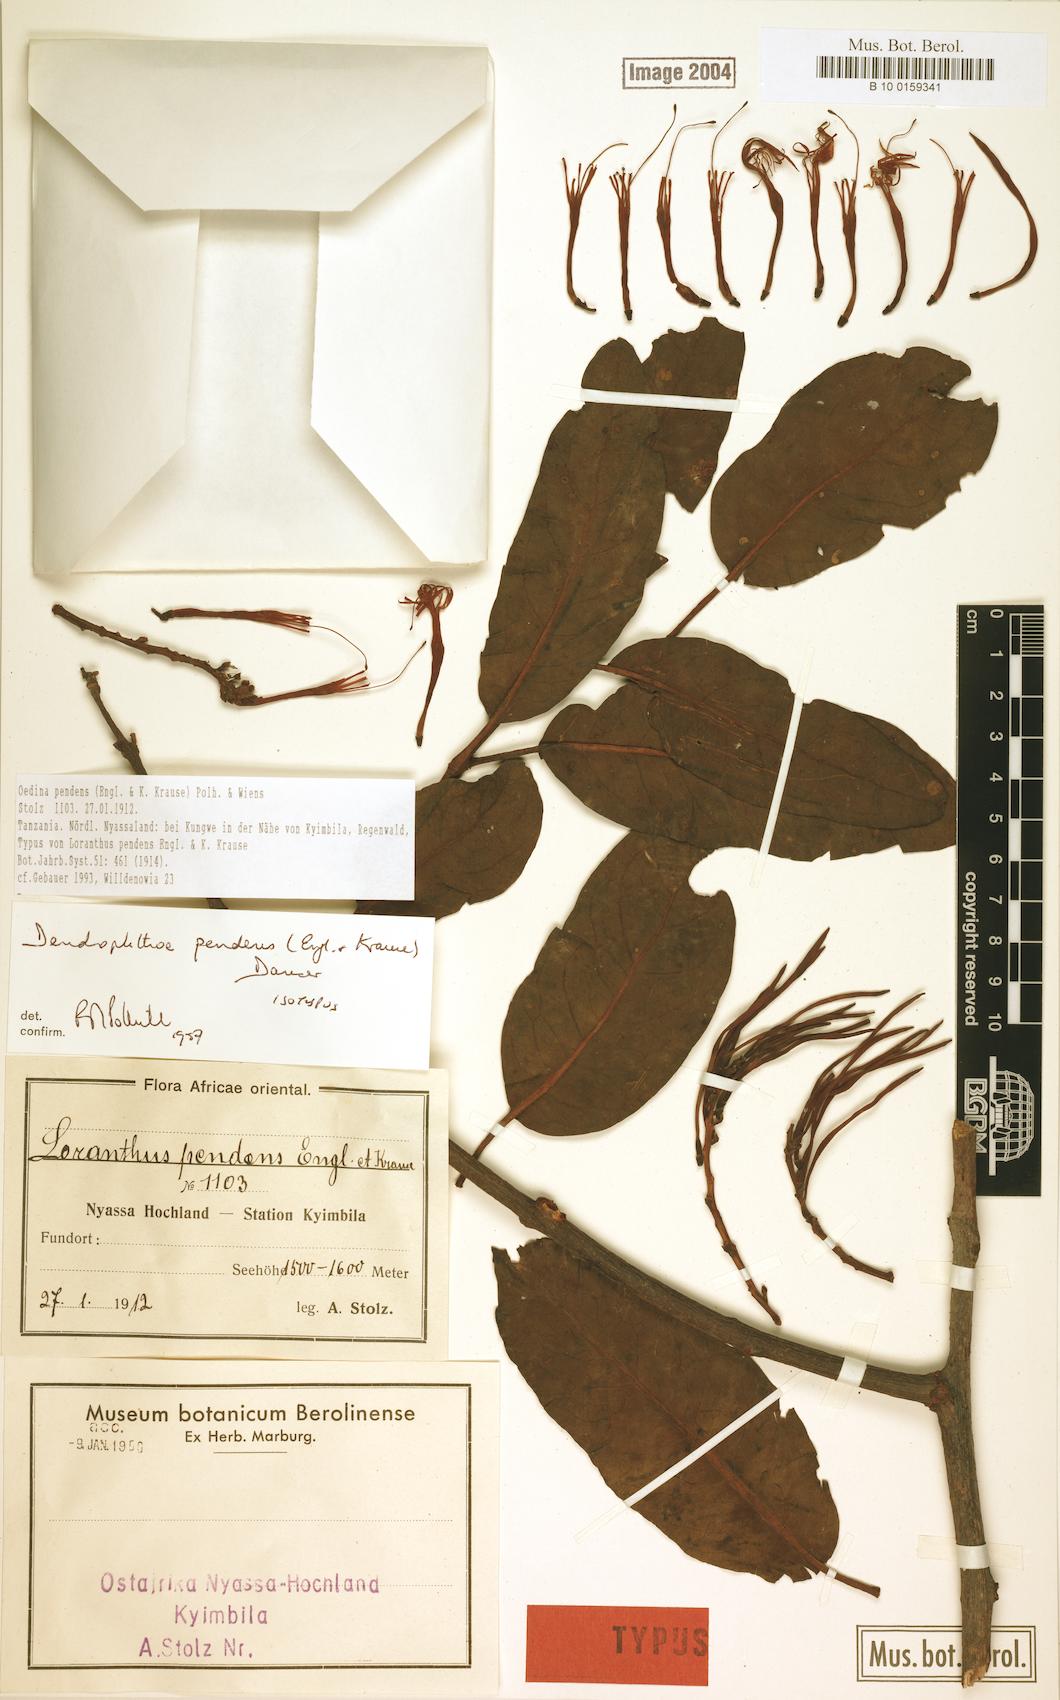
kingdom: Plantae
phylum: Tracheophyta
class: Magnoliopsida
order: Santalales
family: Loranthaceae
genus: Oedina
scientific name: Oedina pendens
